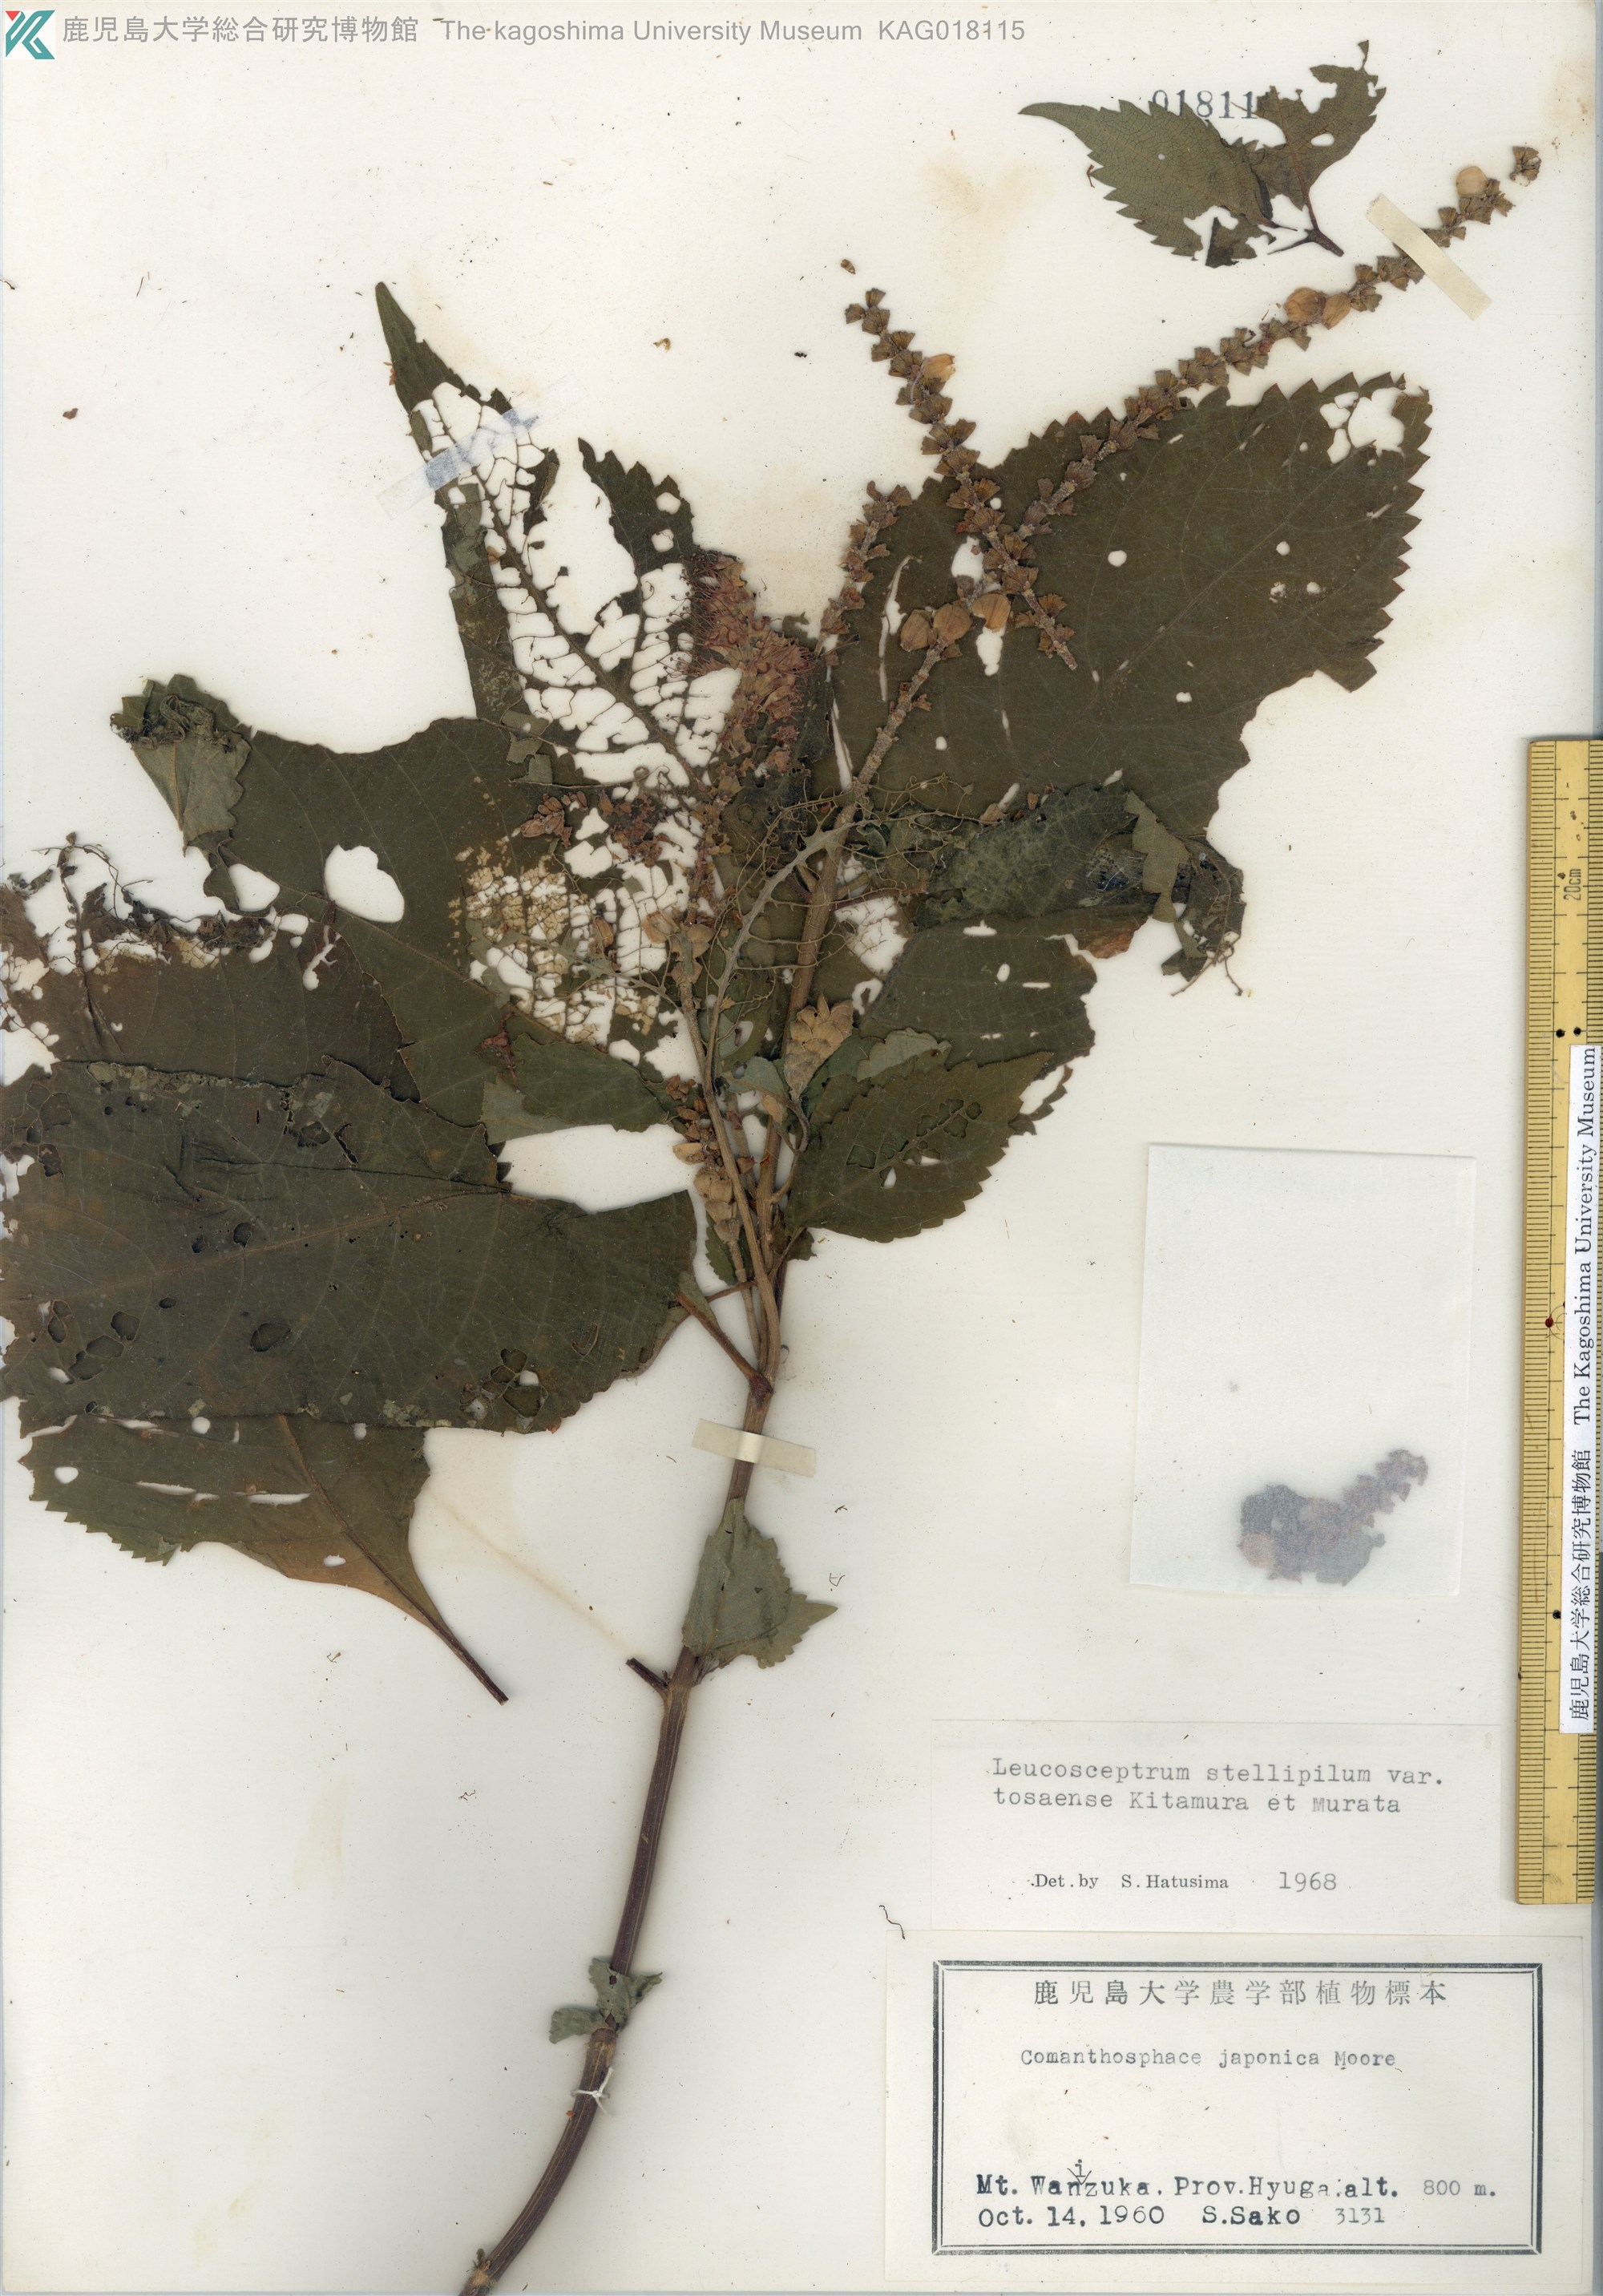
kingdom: Plantae
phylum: Tracheophyta
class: Magnoliopsida
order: Lamiales
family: Lamiaceae
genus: Comanthosphace
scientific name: Comanthosphace japonica
